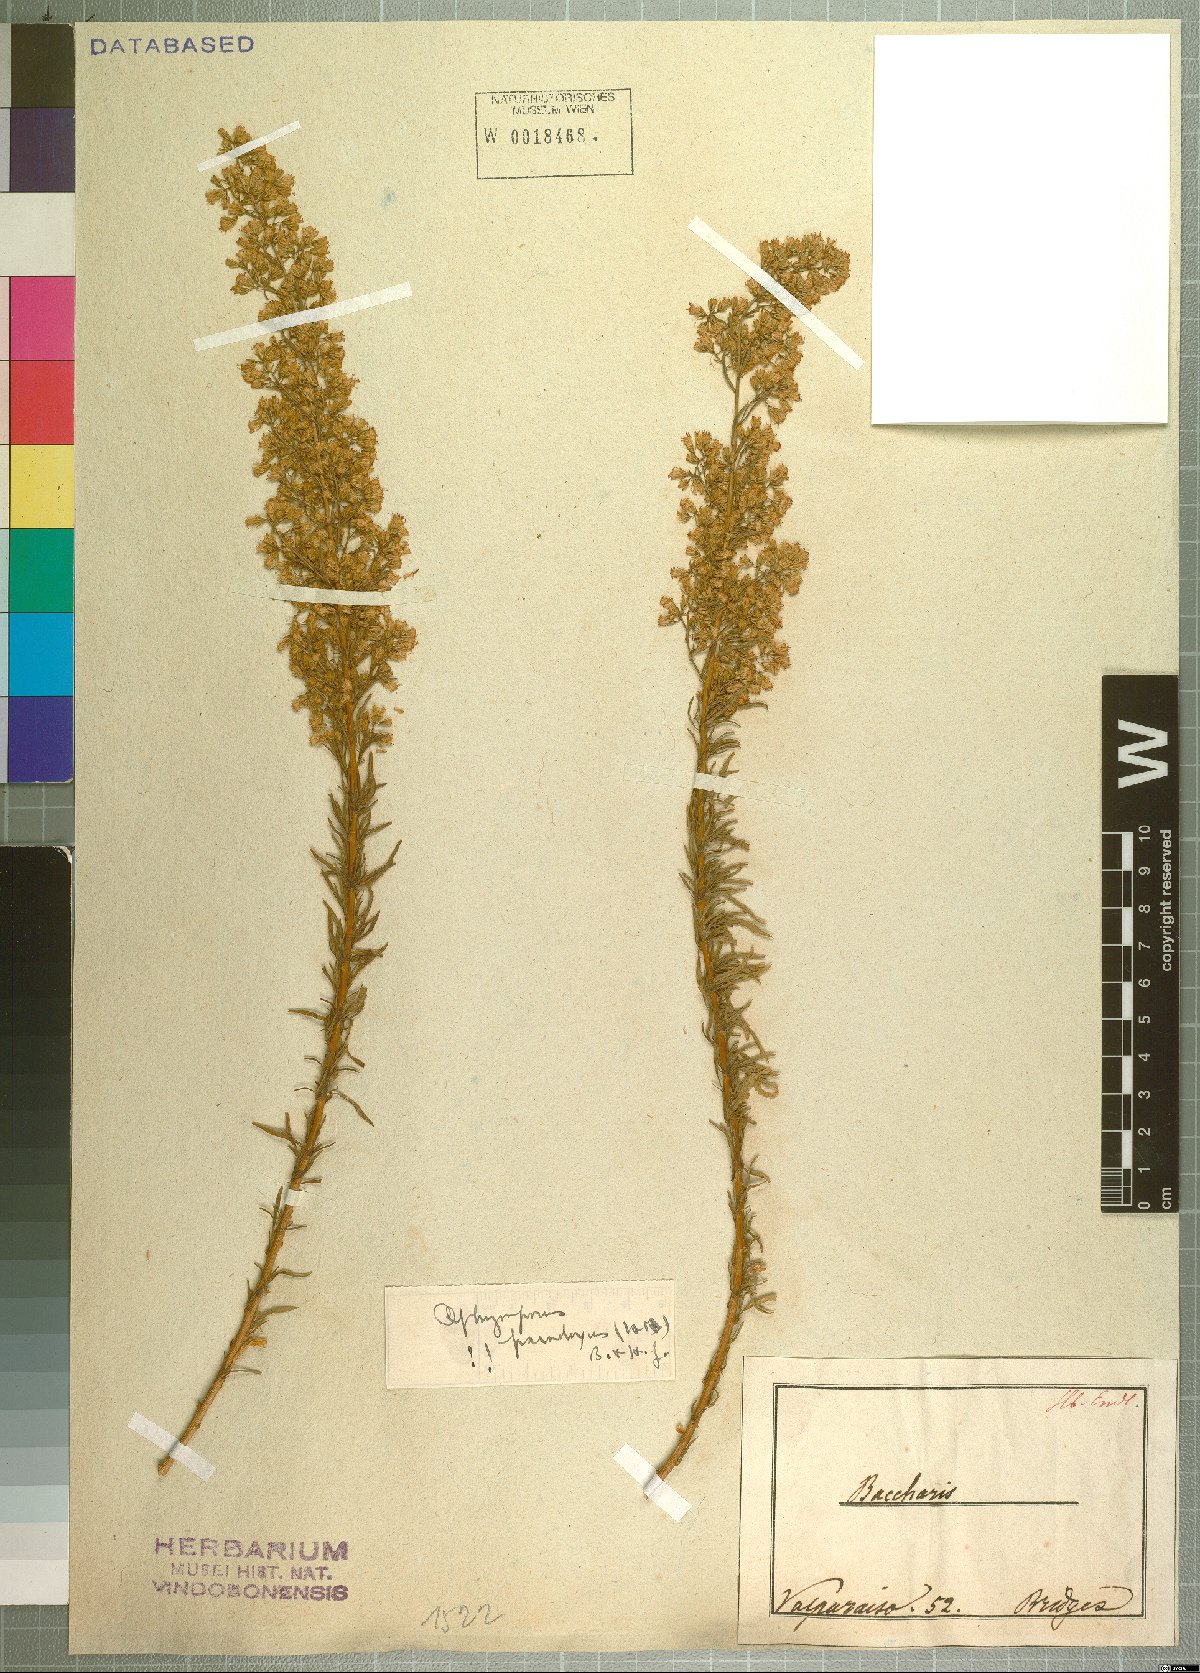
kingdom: Plantae
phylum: Tracheophyta
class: Magnoliopsida
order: Asterales
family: Asteraceae
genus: Ophryosporus
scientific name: Ophryosporus paradoxus
